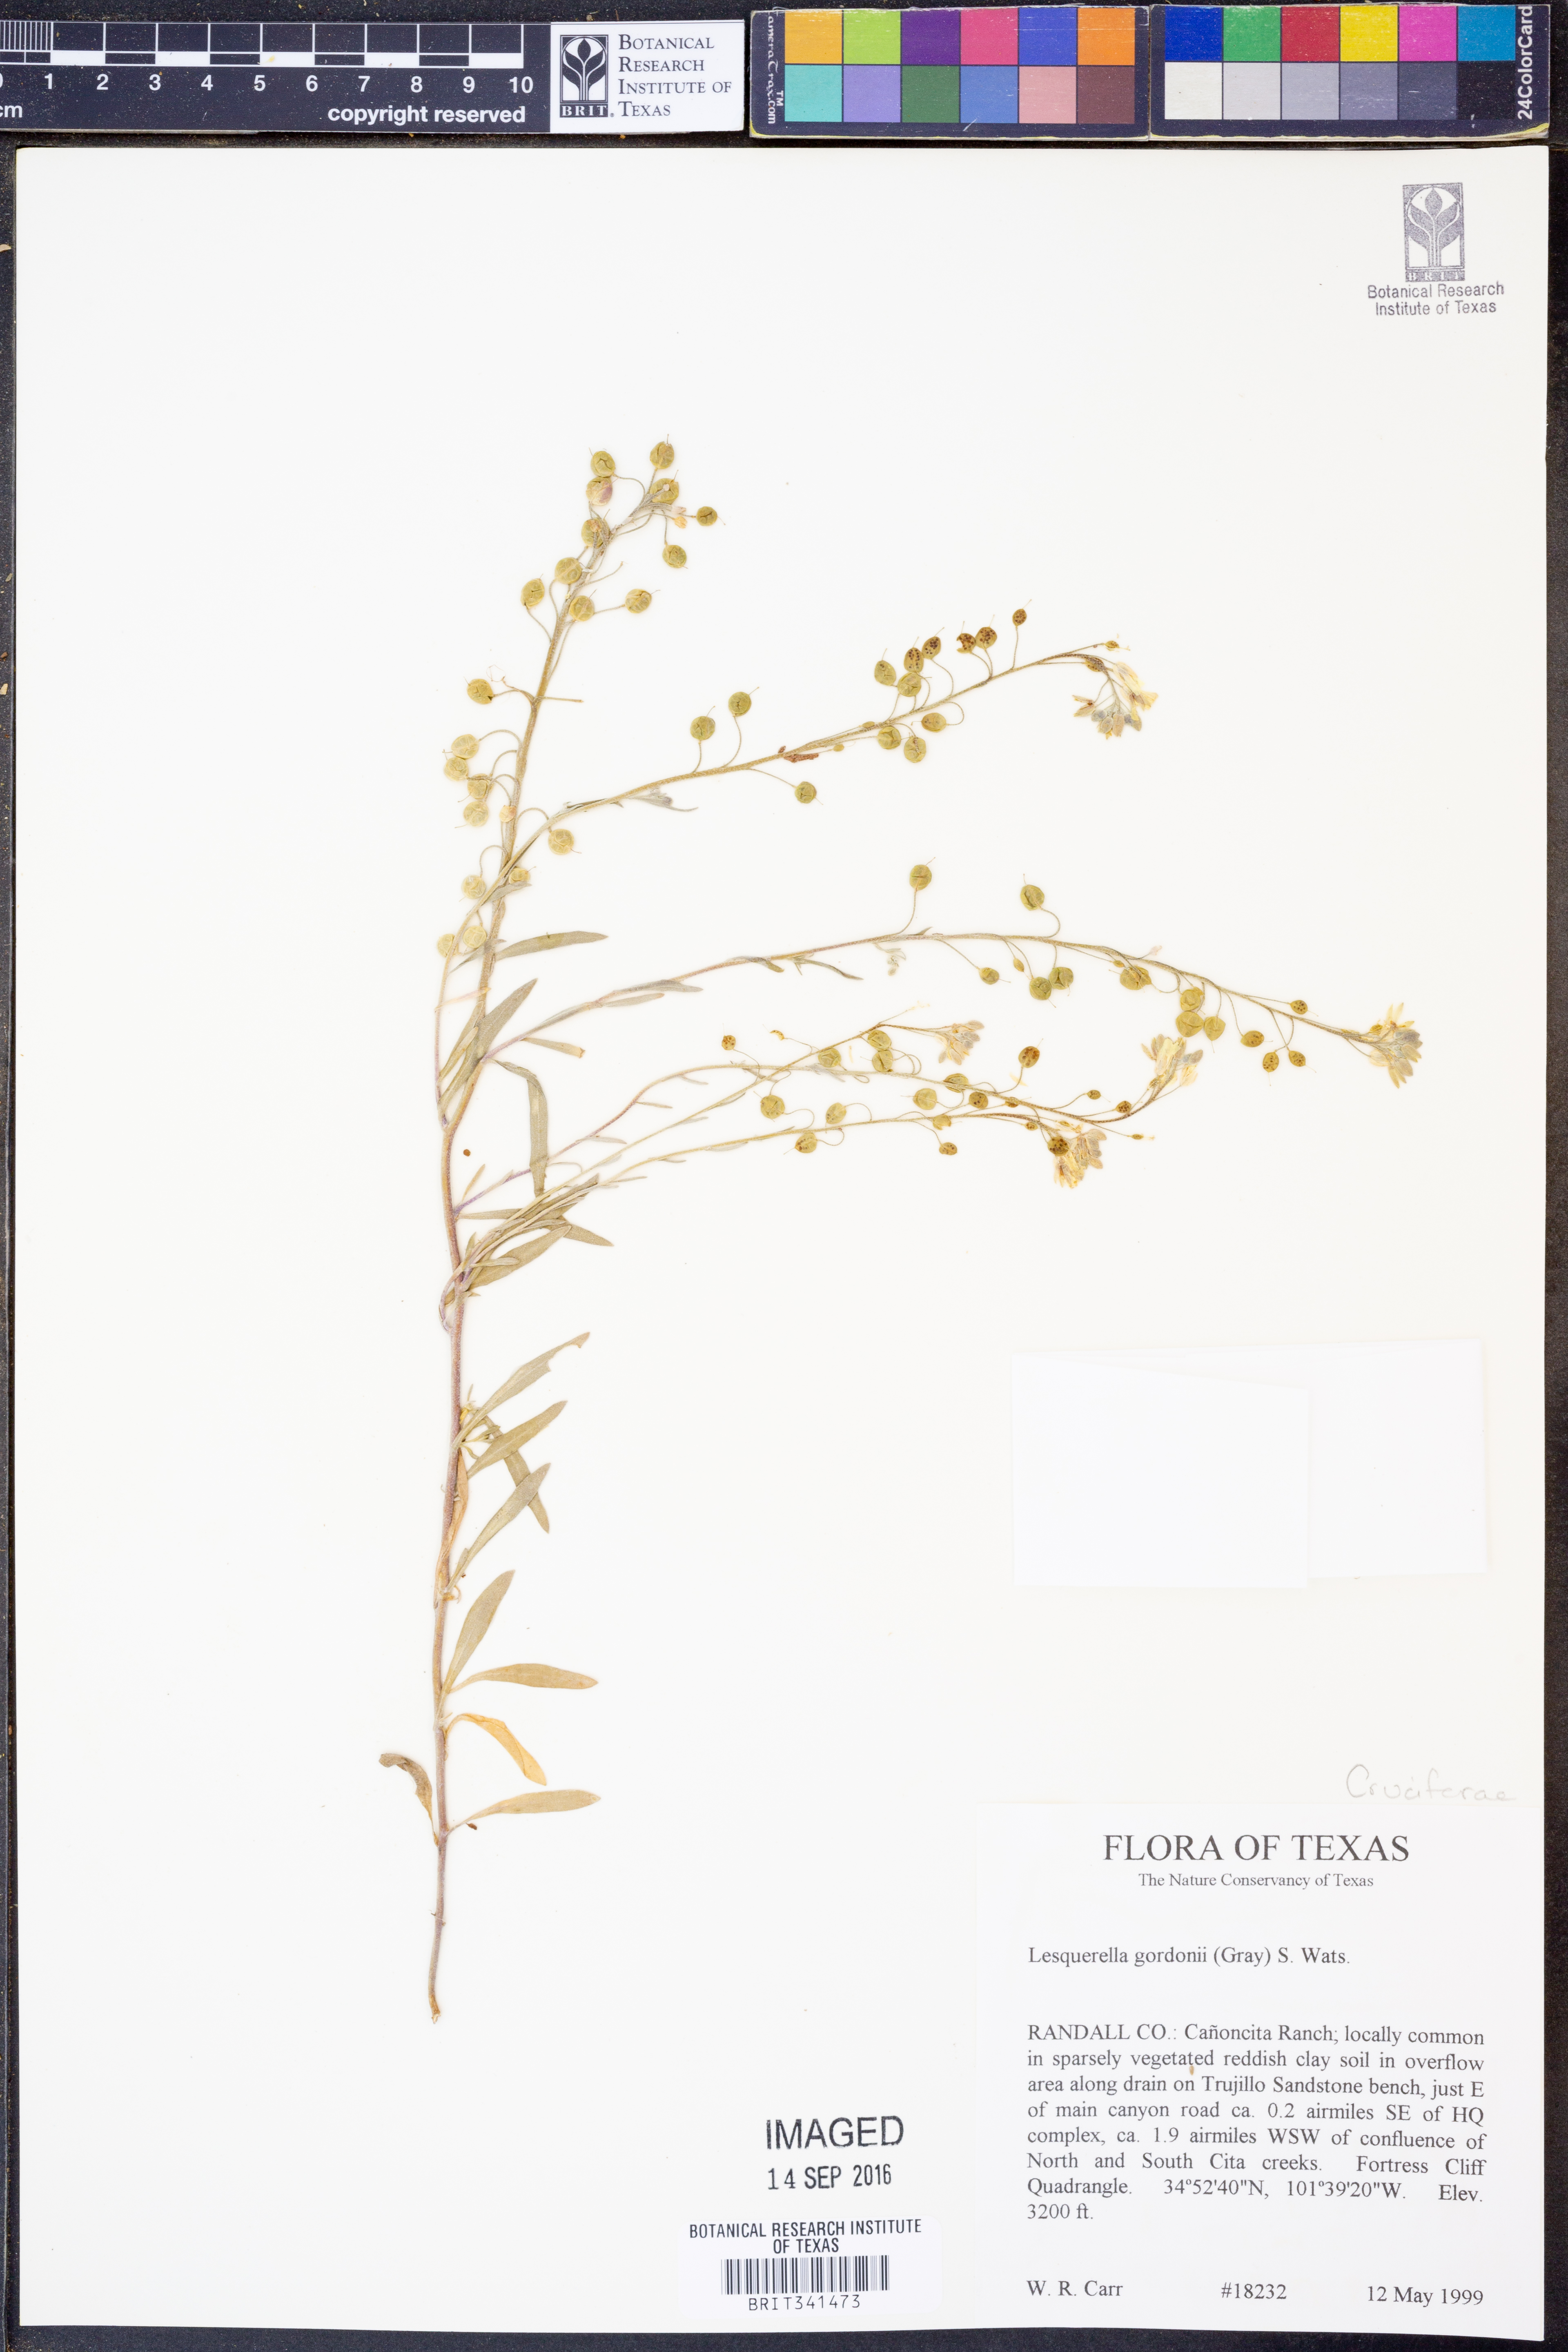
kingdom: Plantae
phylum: Tracheophyta
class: Magnoliopsida
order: Brassicales
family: Brassicaceae
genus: Physaria
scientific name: Physaria gordonii
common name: Gordon's bladderpod
